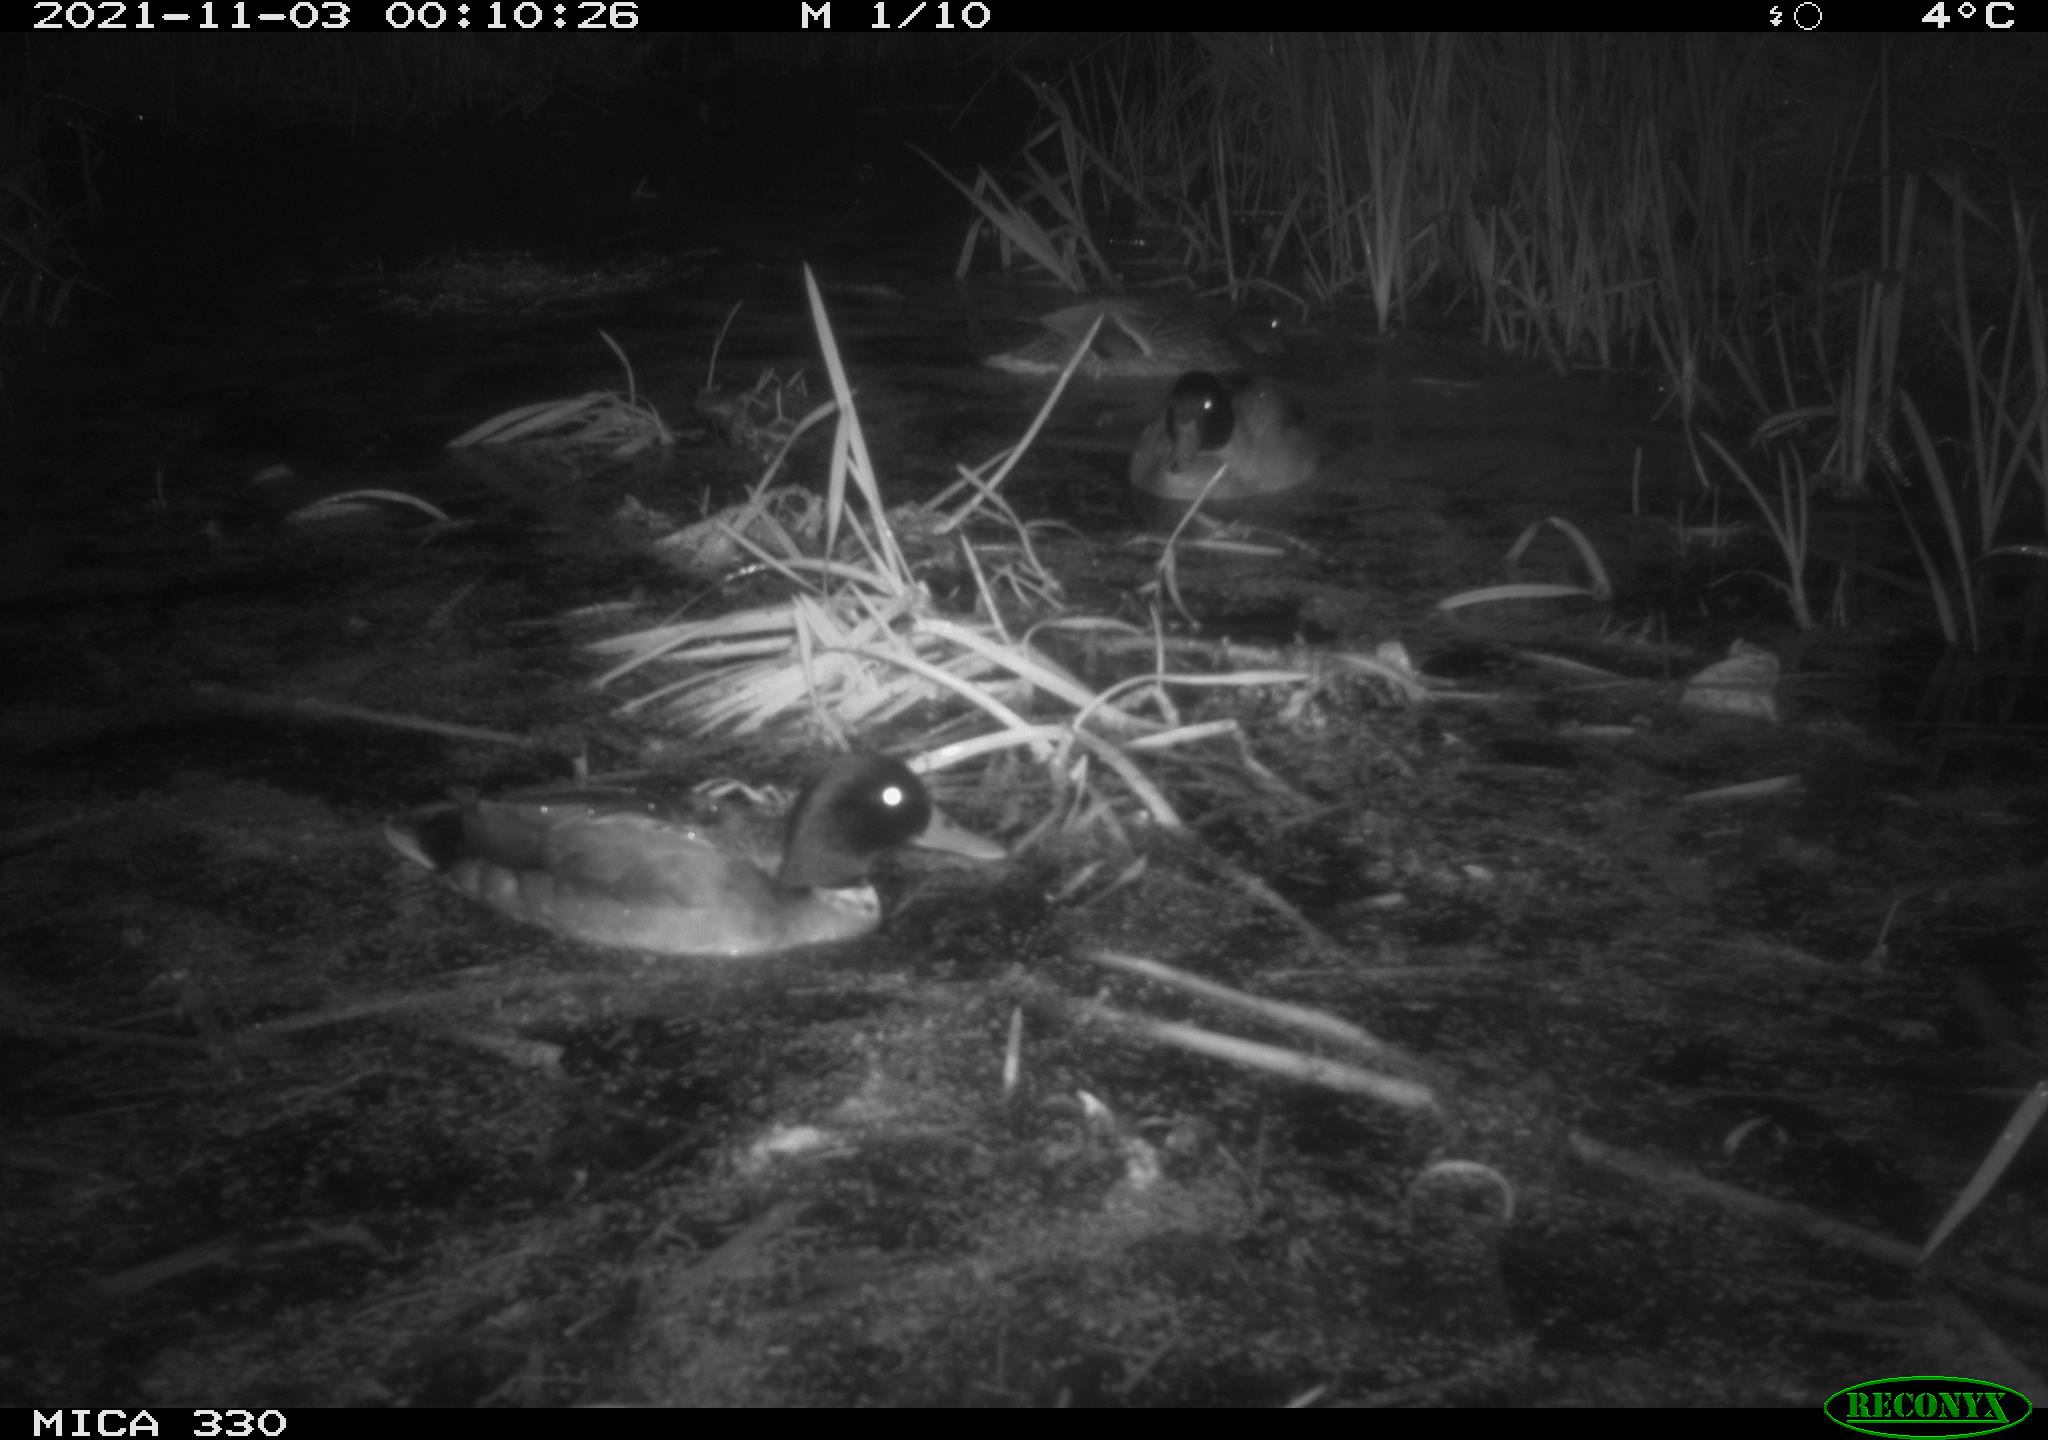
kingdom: Animalia
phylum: Chordata
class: Aves
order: Anseriformes
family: Anatidae
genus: Anas
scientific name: Anas platyrhynchos
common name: Mallard
